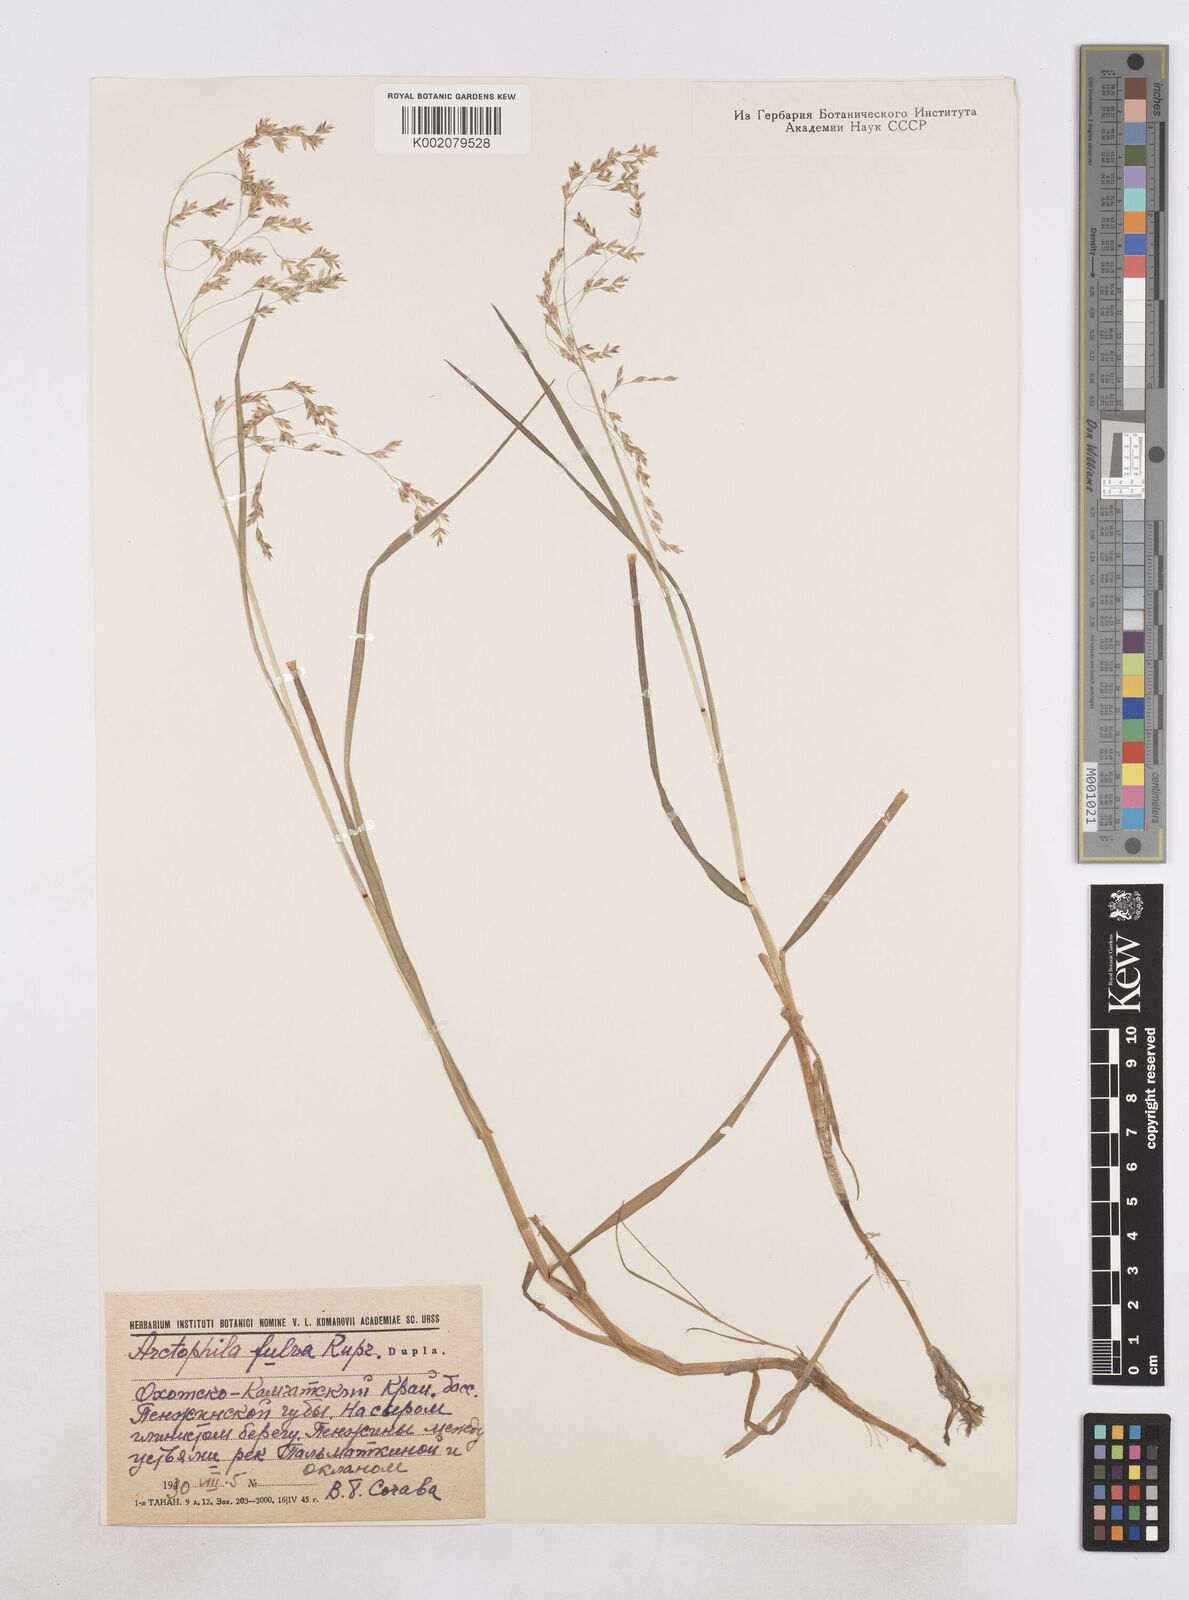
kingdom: Plantae
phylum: Tracheophyta
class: Liliopsida
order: Poales
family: Poaceae
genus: Dupontia
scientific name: Dupontia fulva
